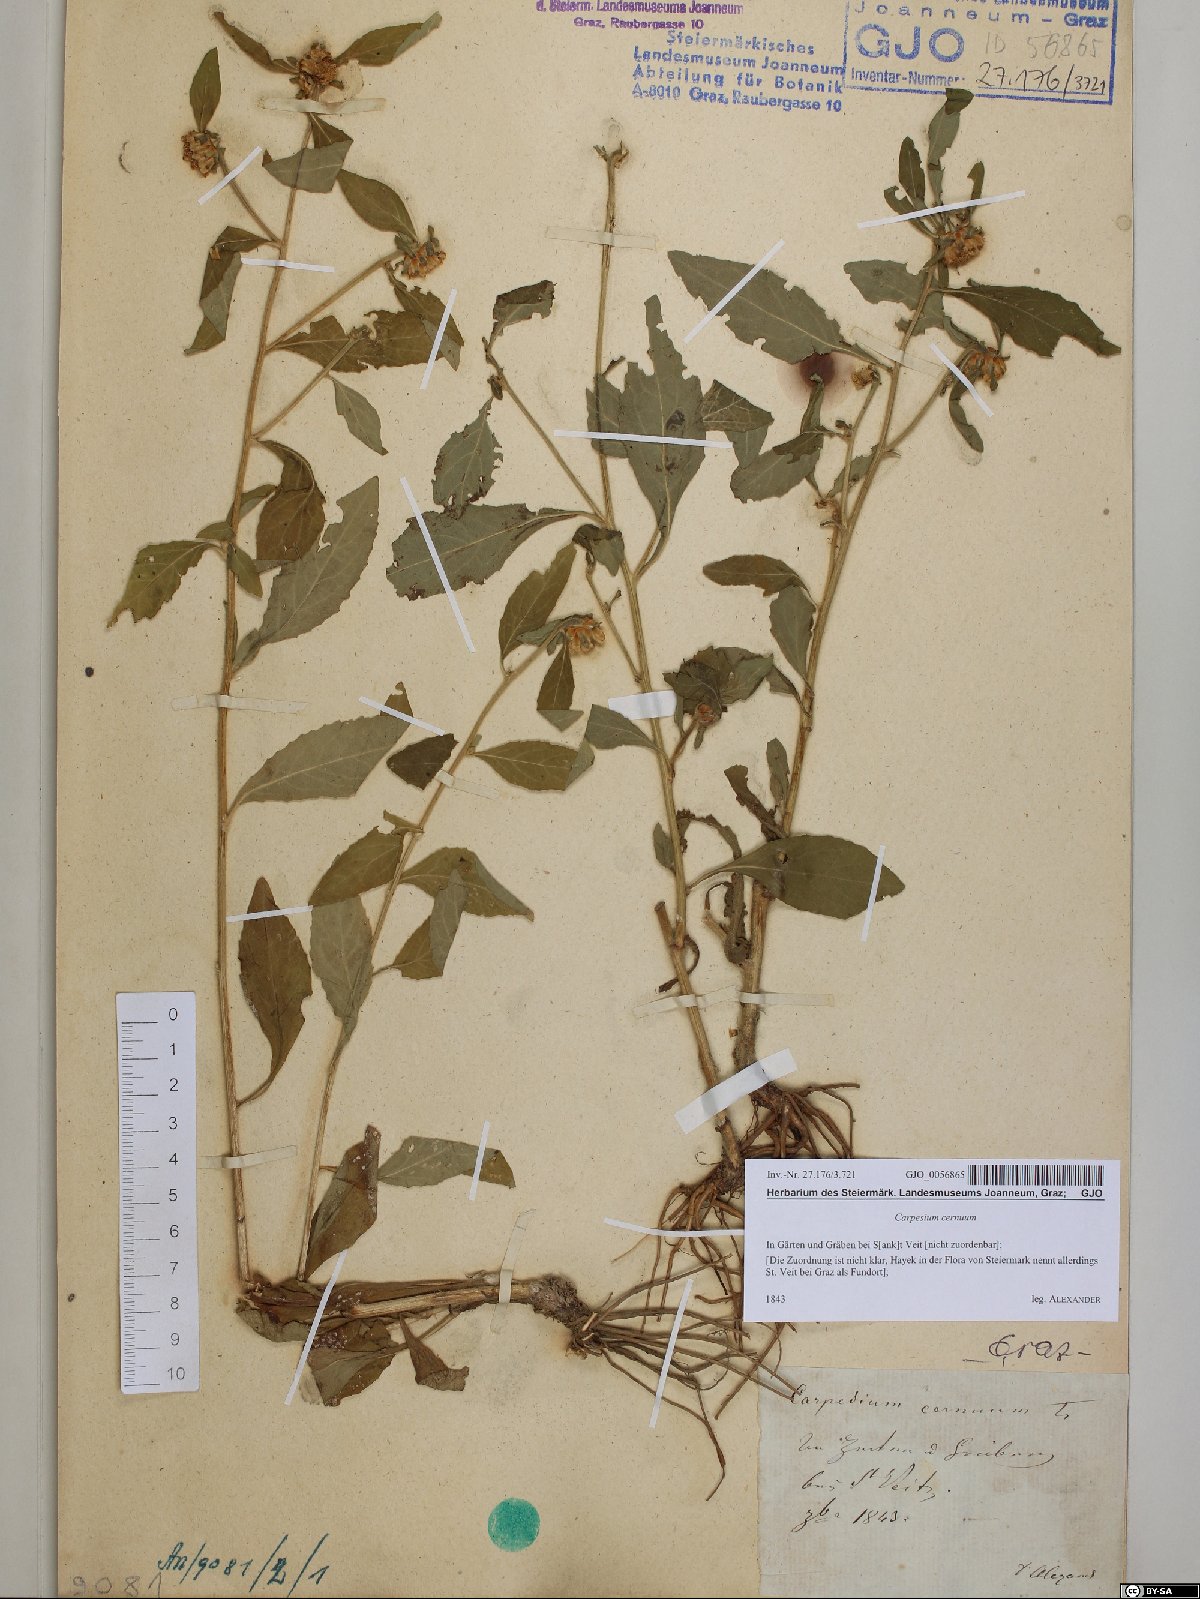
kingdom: Plantae
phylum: Tracheophyta
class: Magnoliopsida
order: Asterales
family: Asteraceae
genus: Carpesium
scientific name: Carpesium cernuum
